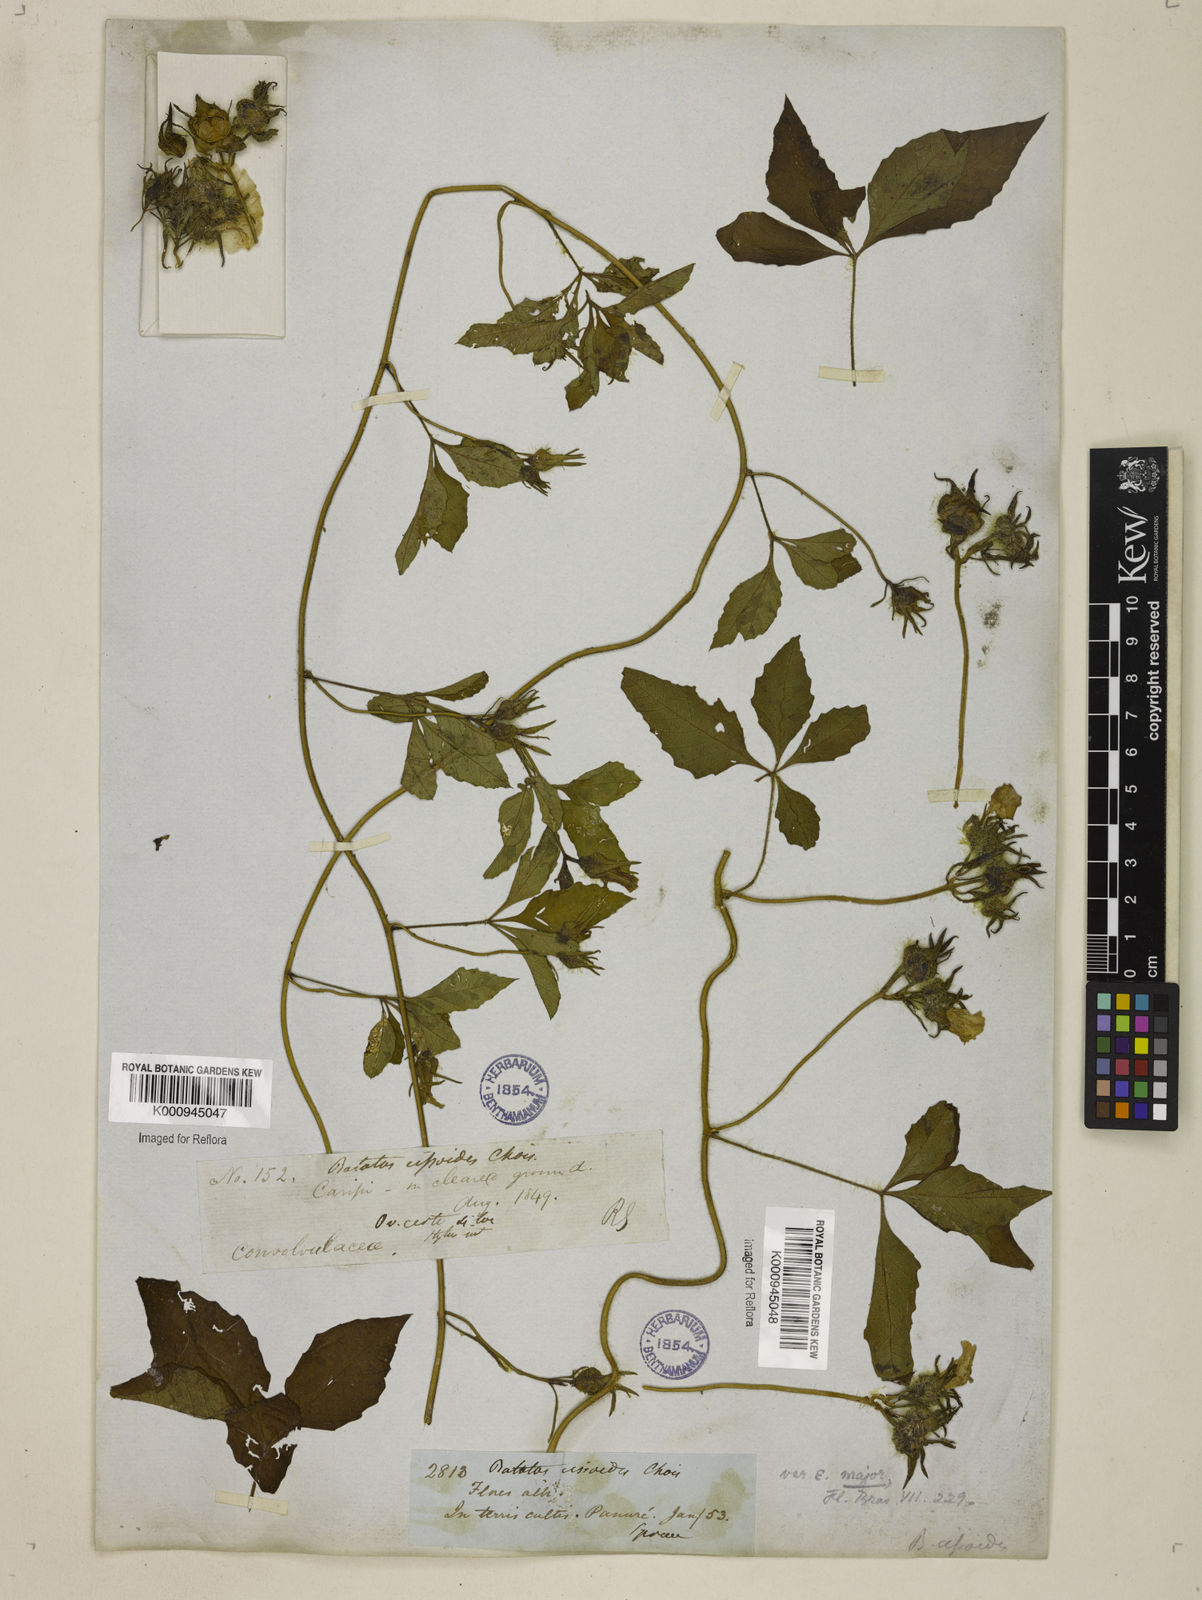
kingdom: Plantae
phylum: Tracheophyta
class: Magnoliopsida
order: Solanales
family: Convolvulaceae
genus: Distimake
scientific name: Distimake cissoides
